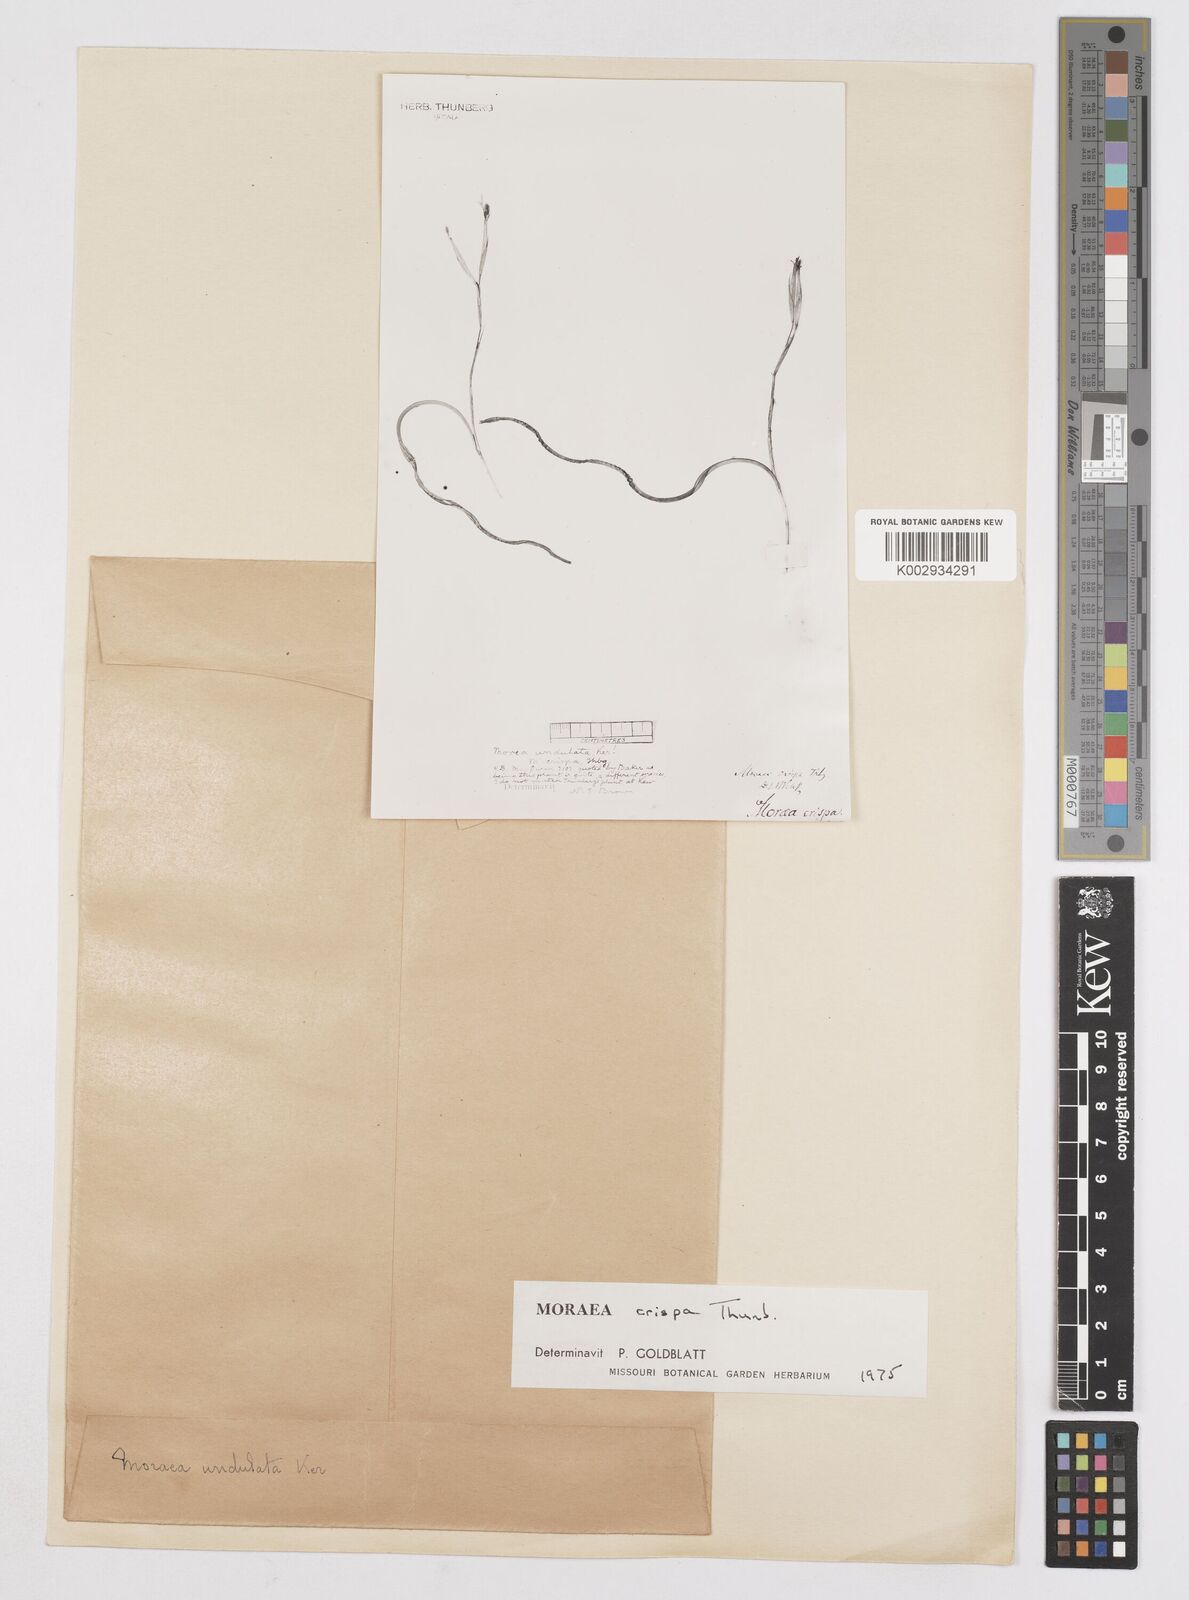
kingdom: Plantae
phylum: Tracheophyta
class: Liliopsida
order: Asparagales
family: Iridaceae
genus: Moraea
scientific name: Moraea crispa
